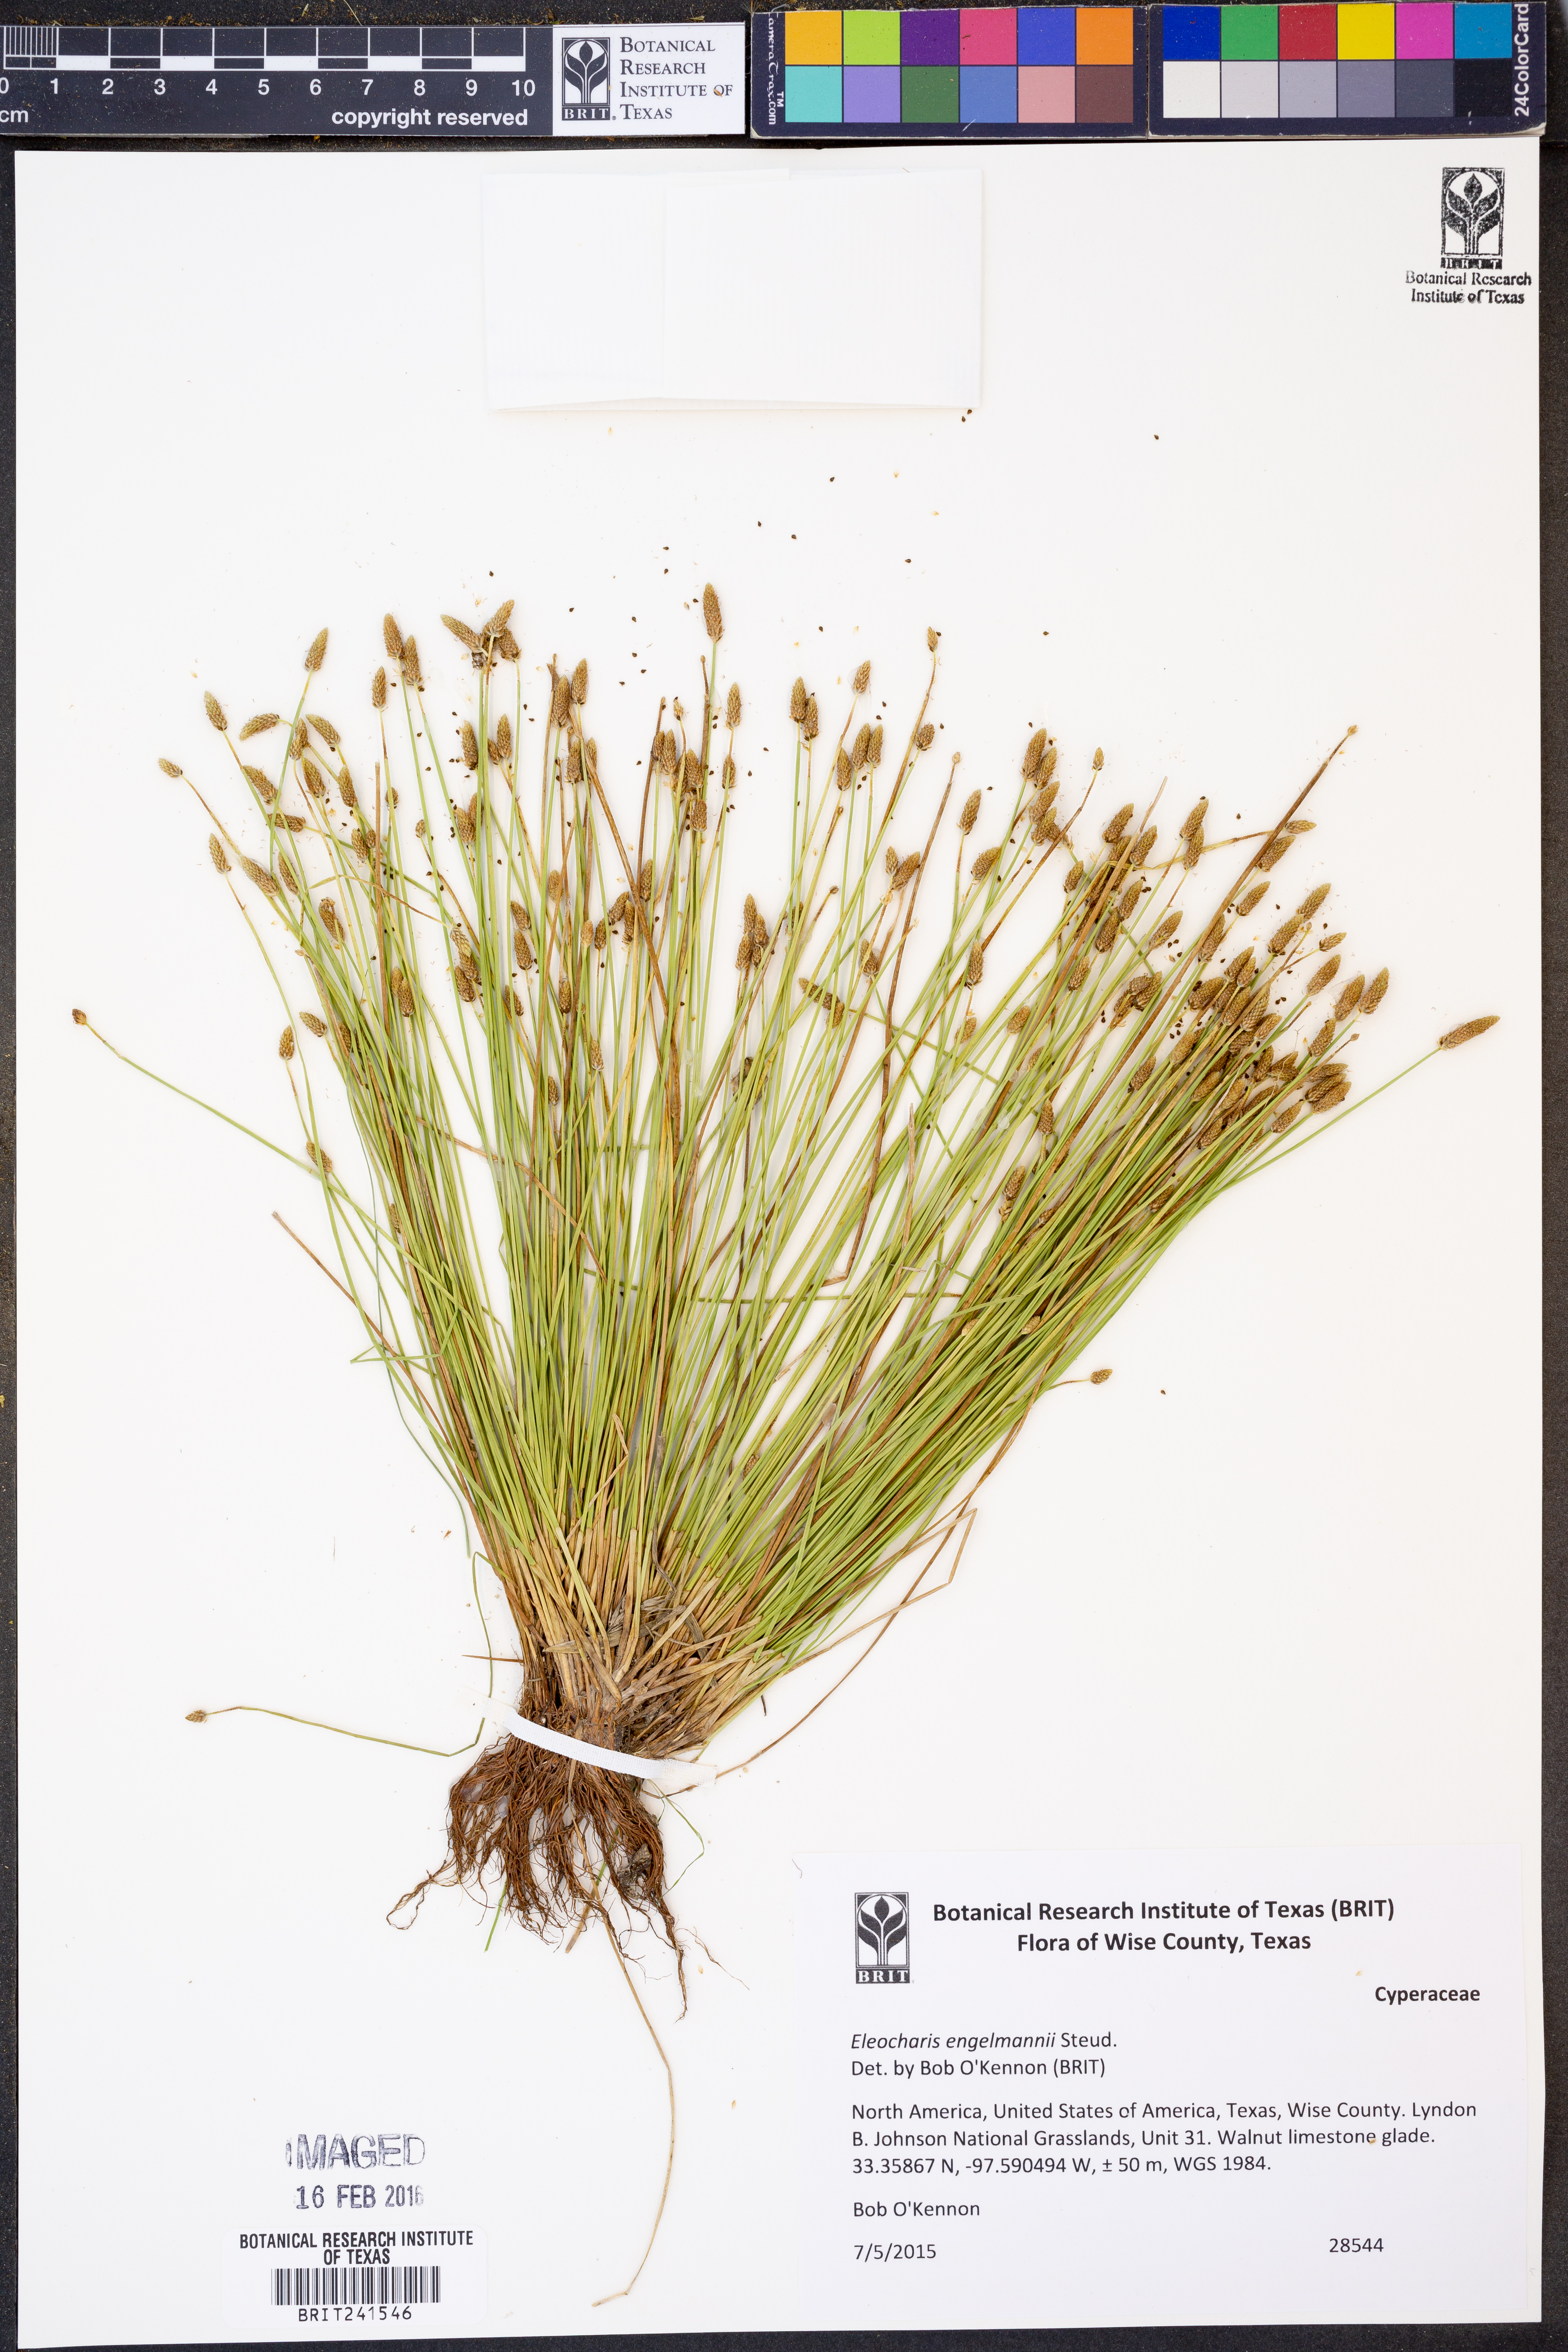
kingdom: Plantae
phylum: Tracheophyta
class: Liliopsida
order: Poales
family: Cyperaceae
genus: Eleocharis
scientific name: Eleocharis engelmannii
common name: Engelmann's spikerush
